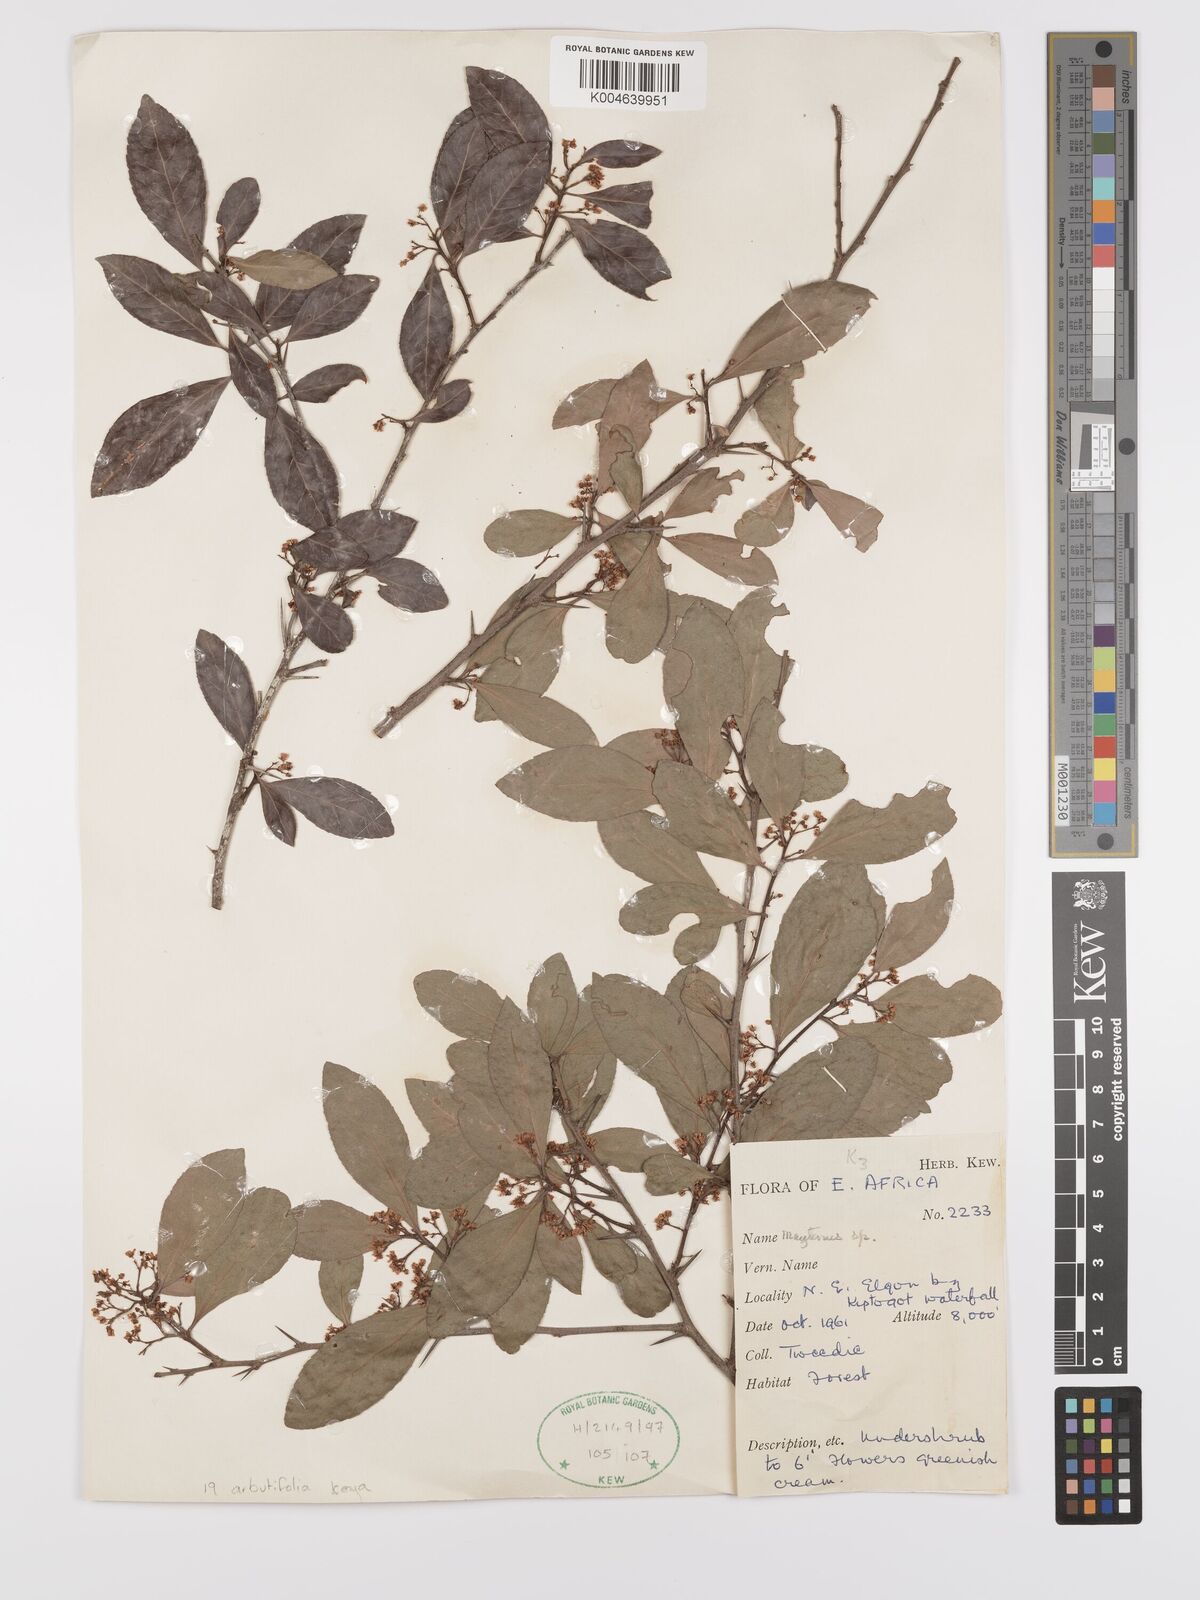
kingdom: Plantae
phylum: Tracheophyta
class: Magnoliopsida
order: Celastrales
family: Celastraceae
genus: Gymnosporia
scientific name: Gymnosporia arbutifolia
